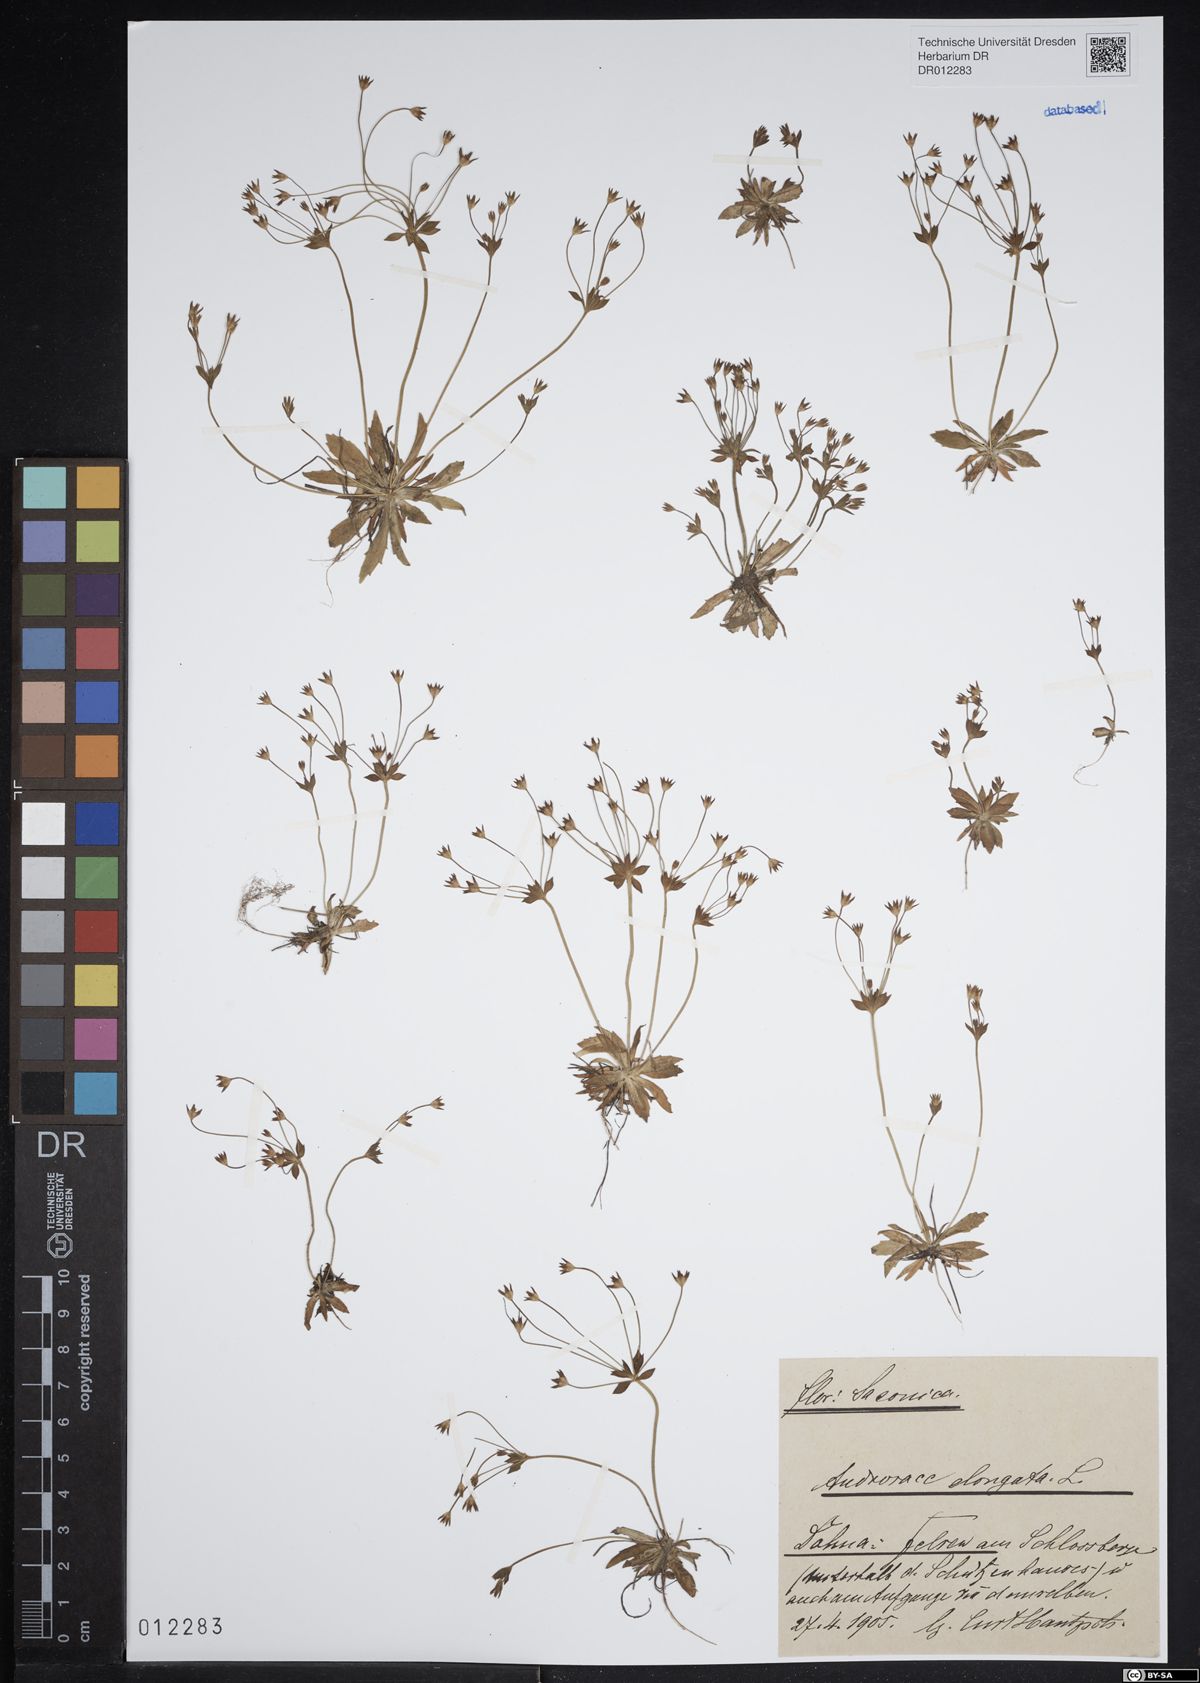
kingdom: Plantae
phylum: Tracheophyta
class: Magnoliopsida
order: Ericales
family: Primulaceae
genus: Androsace
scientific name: Androsace elongata
